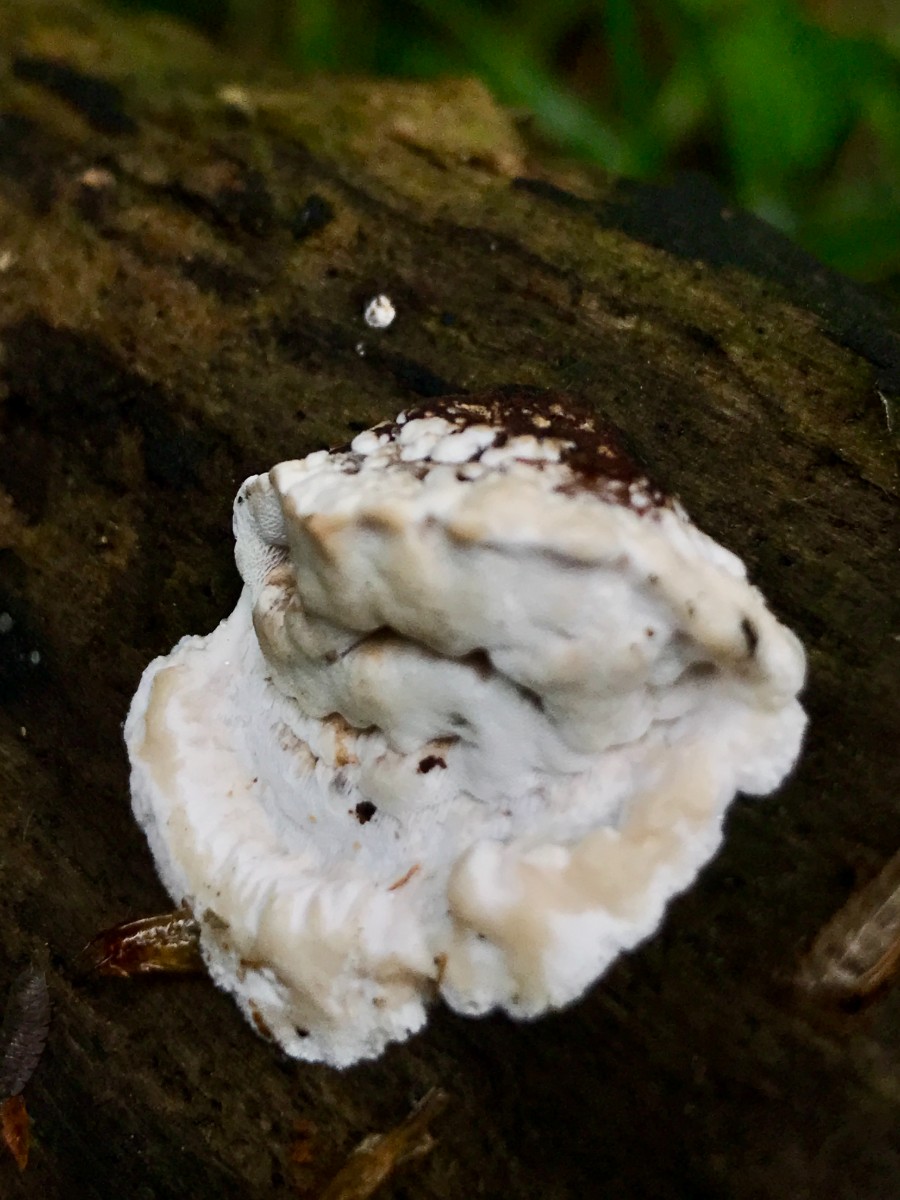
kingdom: Fungi
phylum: Basidiomycota
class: Agaricomycetes
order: Polyporales
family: Incrustoporiaceae
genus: Skeletocutis
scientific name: Skeletocutis nemoralis
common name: stor krystalporesvamp
